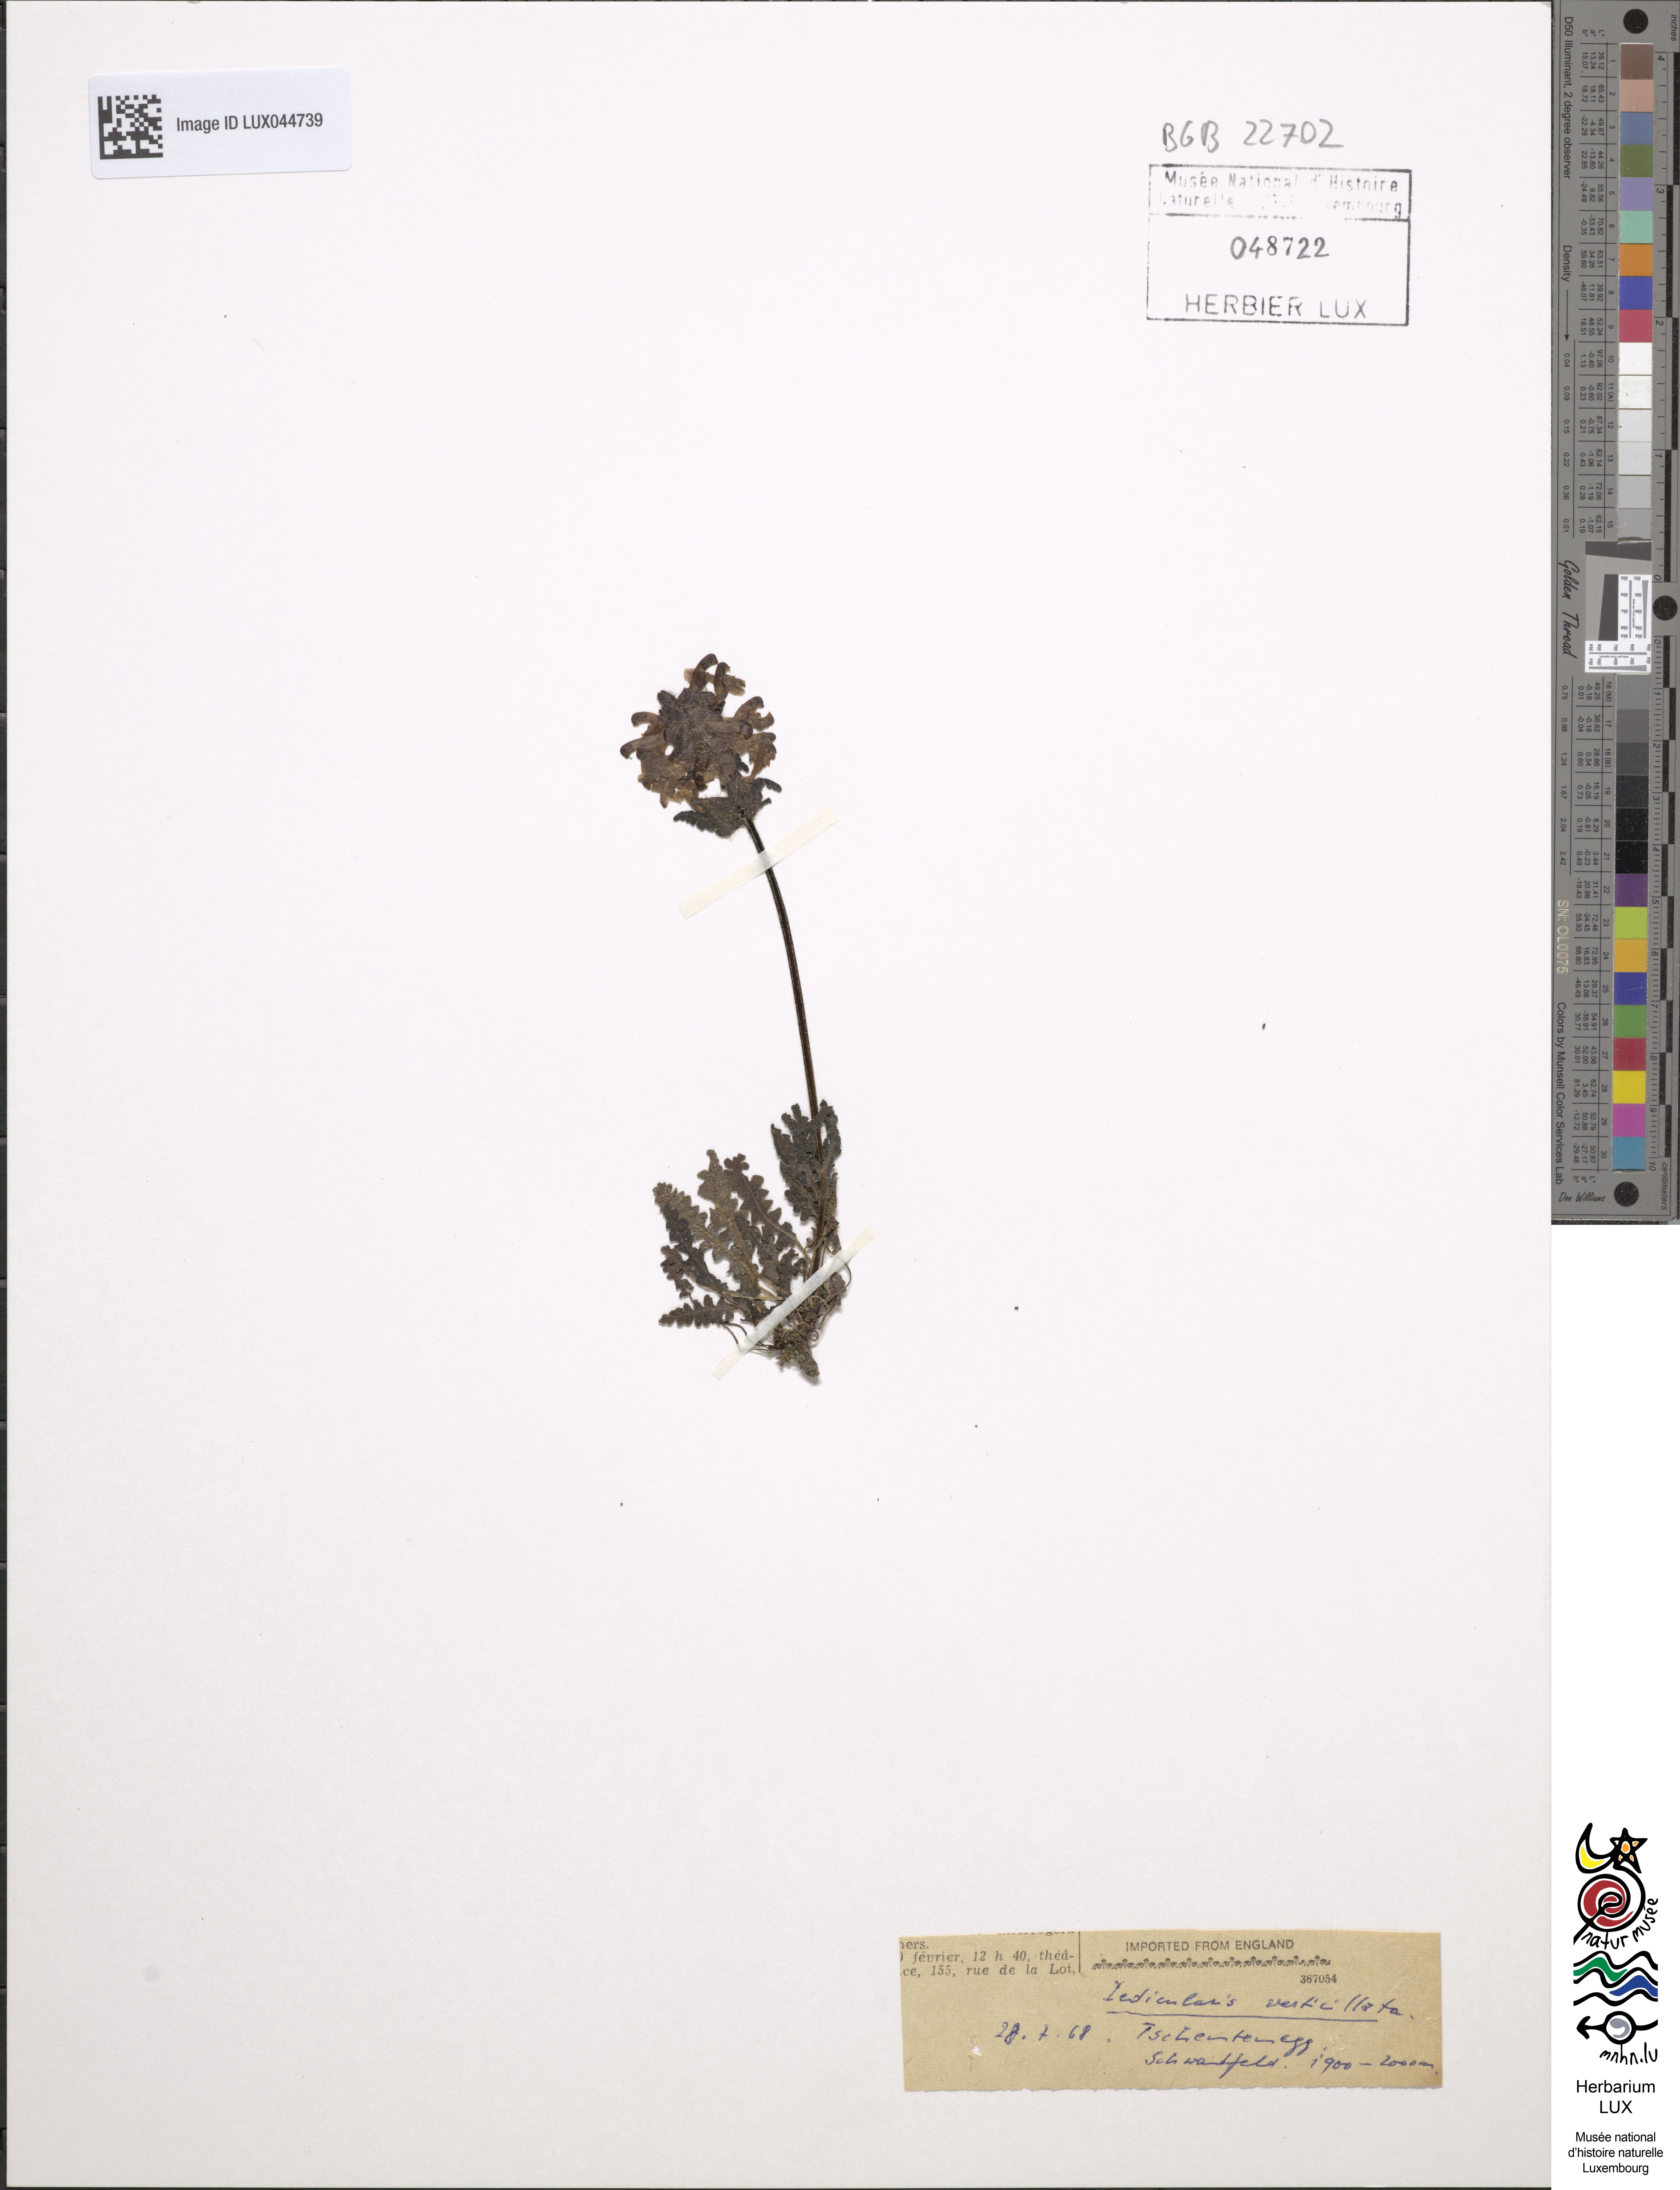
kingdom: Plantae
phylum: Tracheophyta
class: Magnoliopsida
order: Lamiales
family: Orobanchaceae
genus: Pedicularis
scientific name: Pedicularis verticillata
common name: Whorled lousewort
